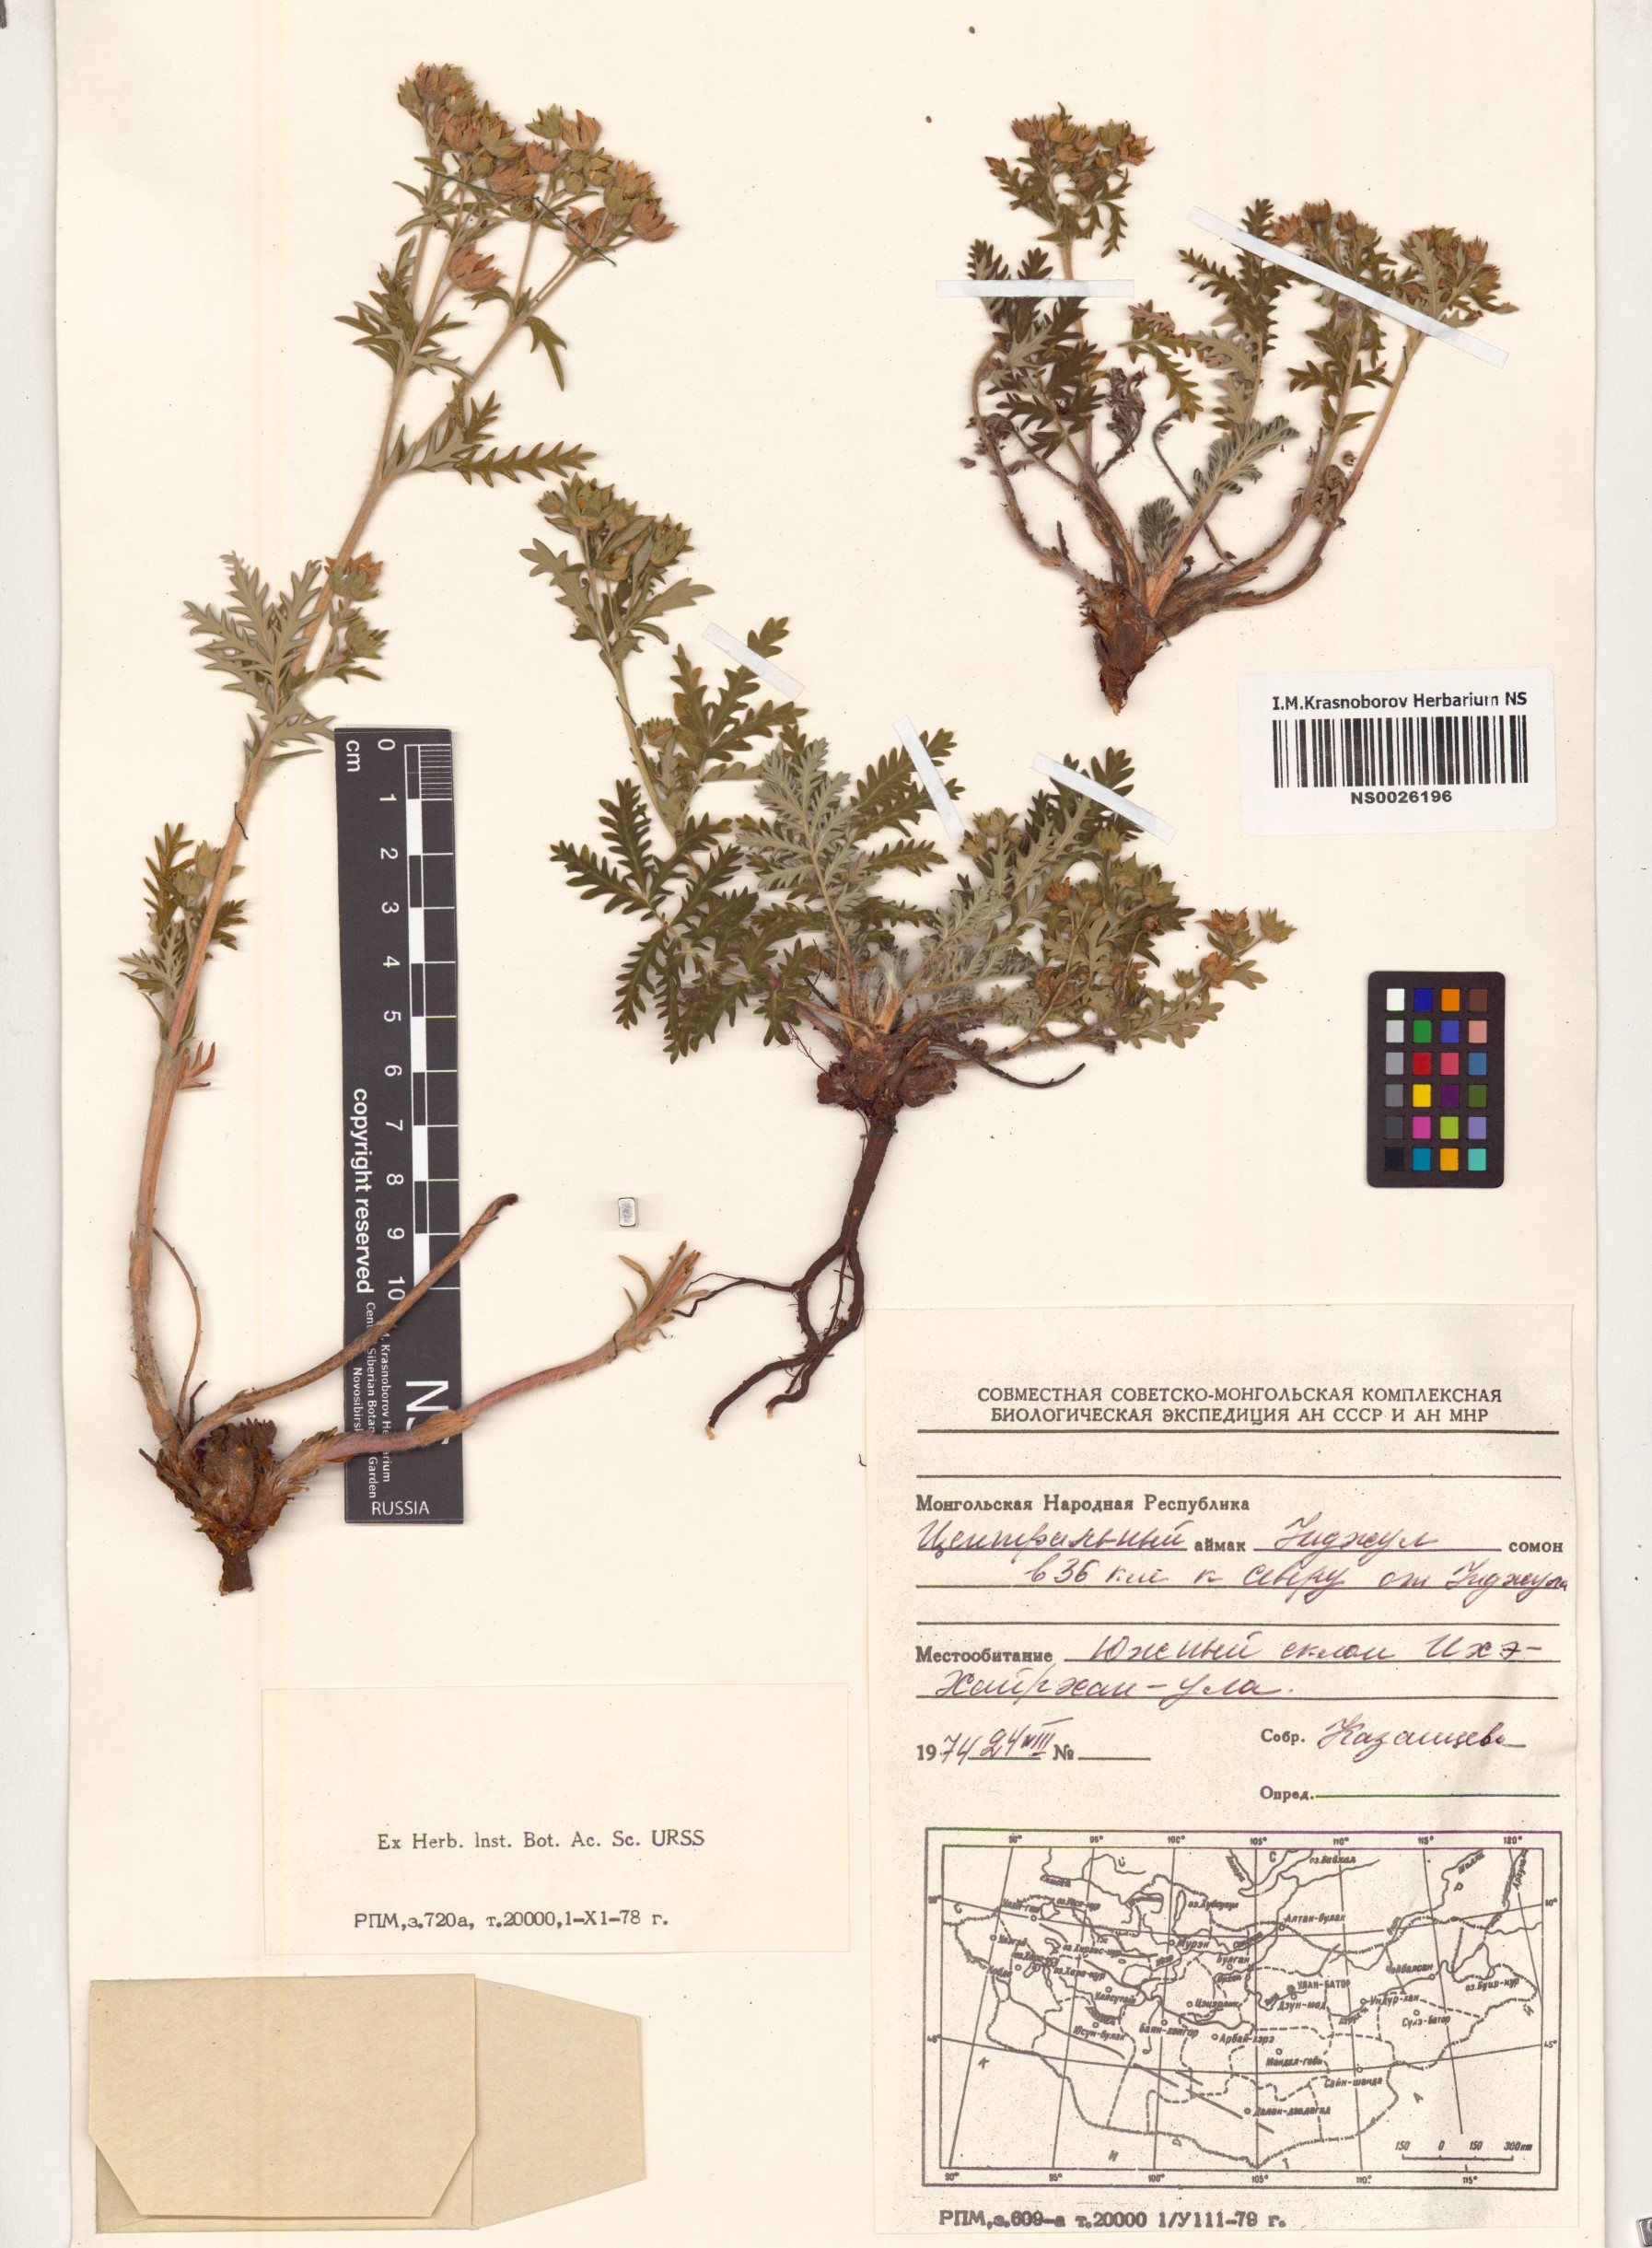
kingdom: Plantae
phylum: Tracheophyta
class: Magnoliopsida
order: Rosales
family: Rosaceae
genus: Potentilla
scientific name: Potentilla conferta
